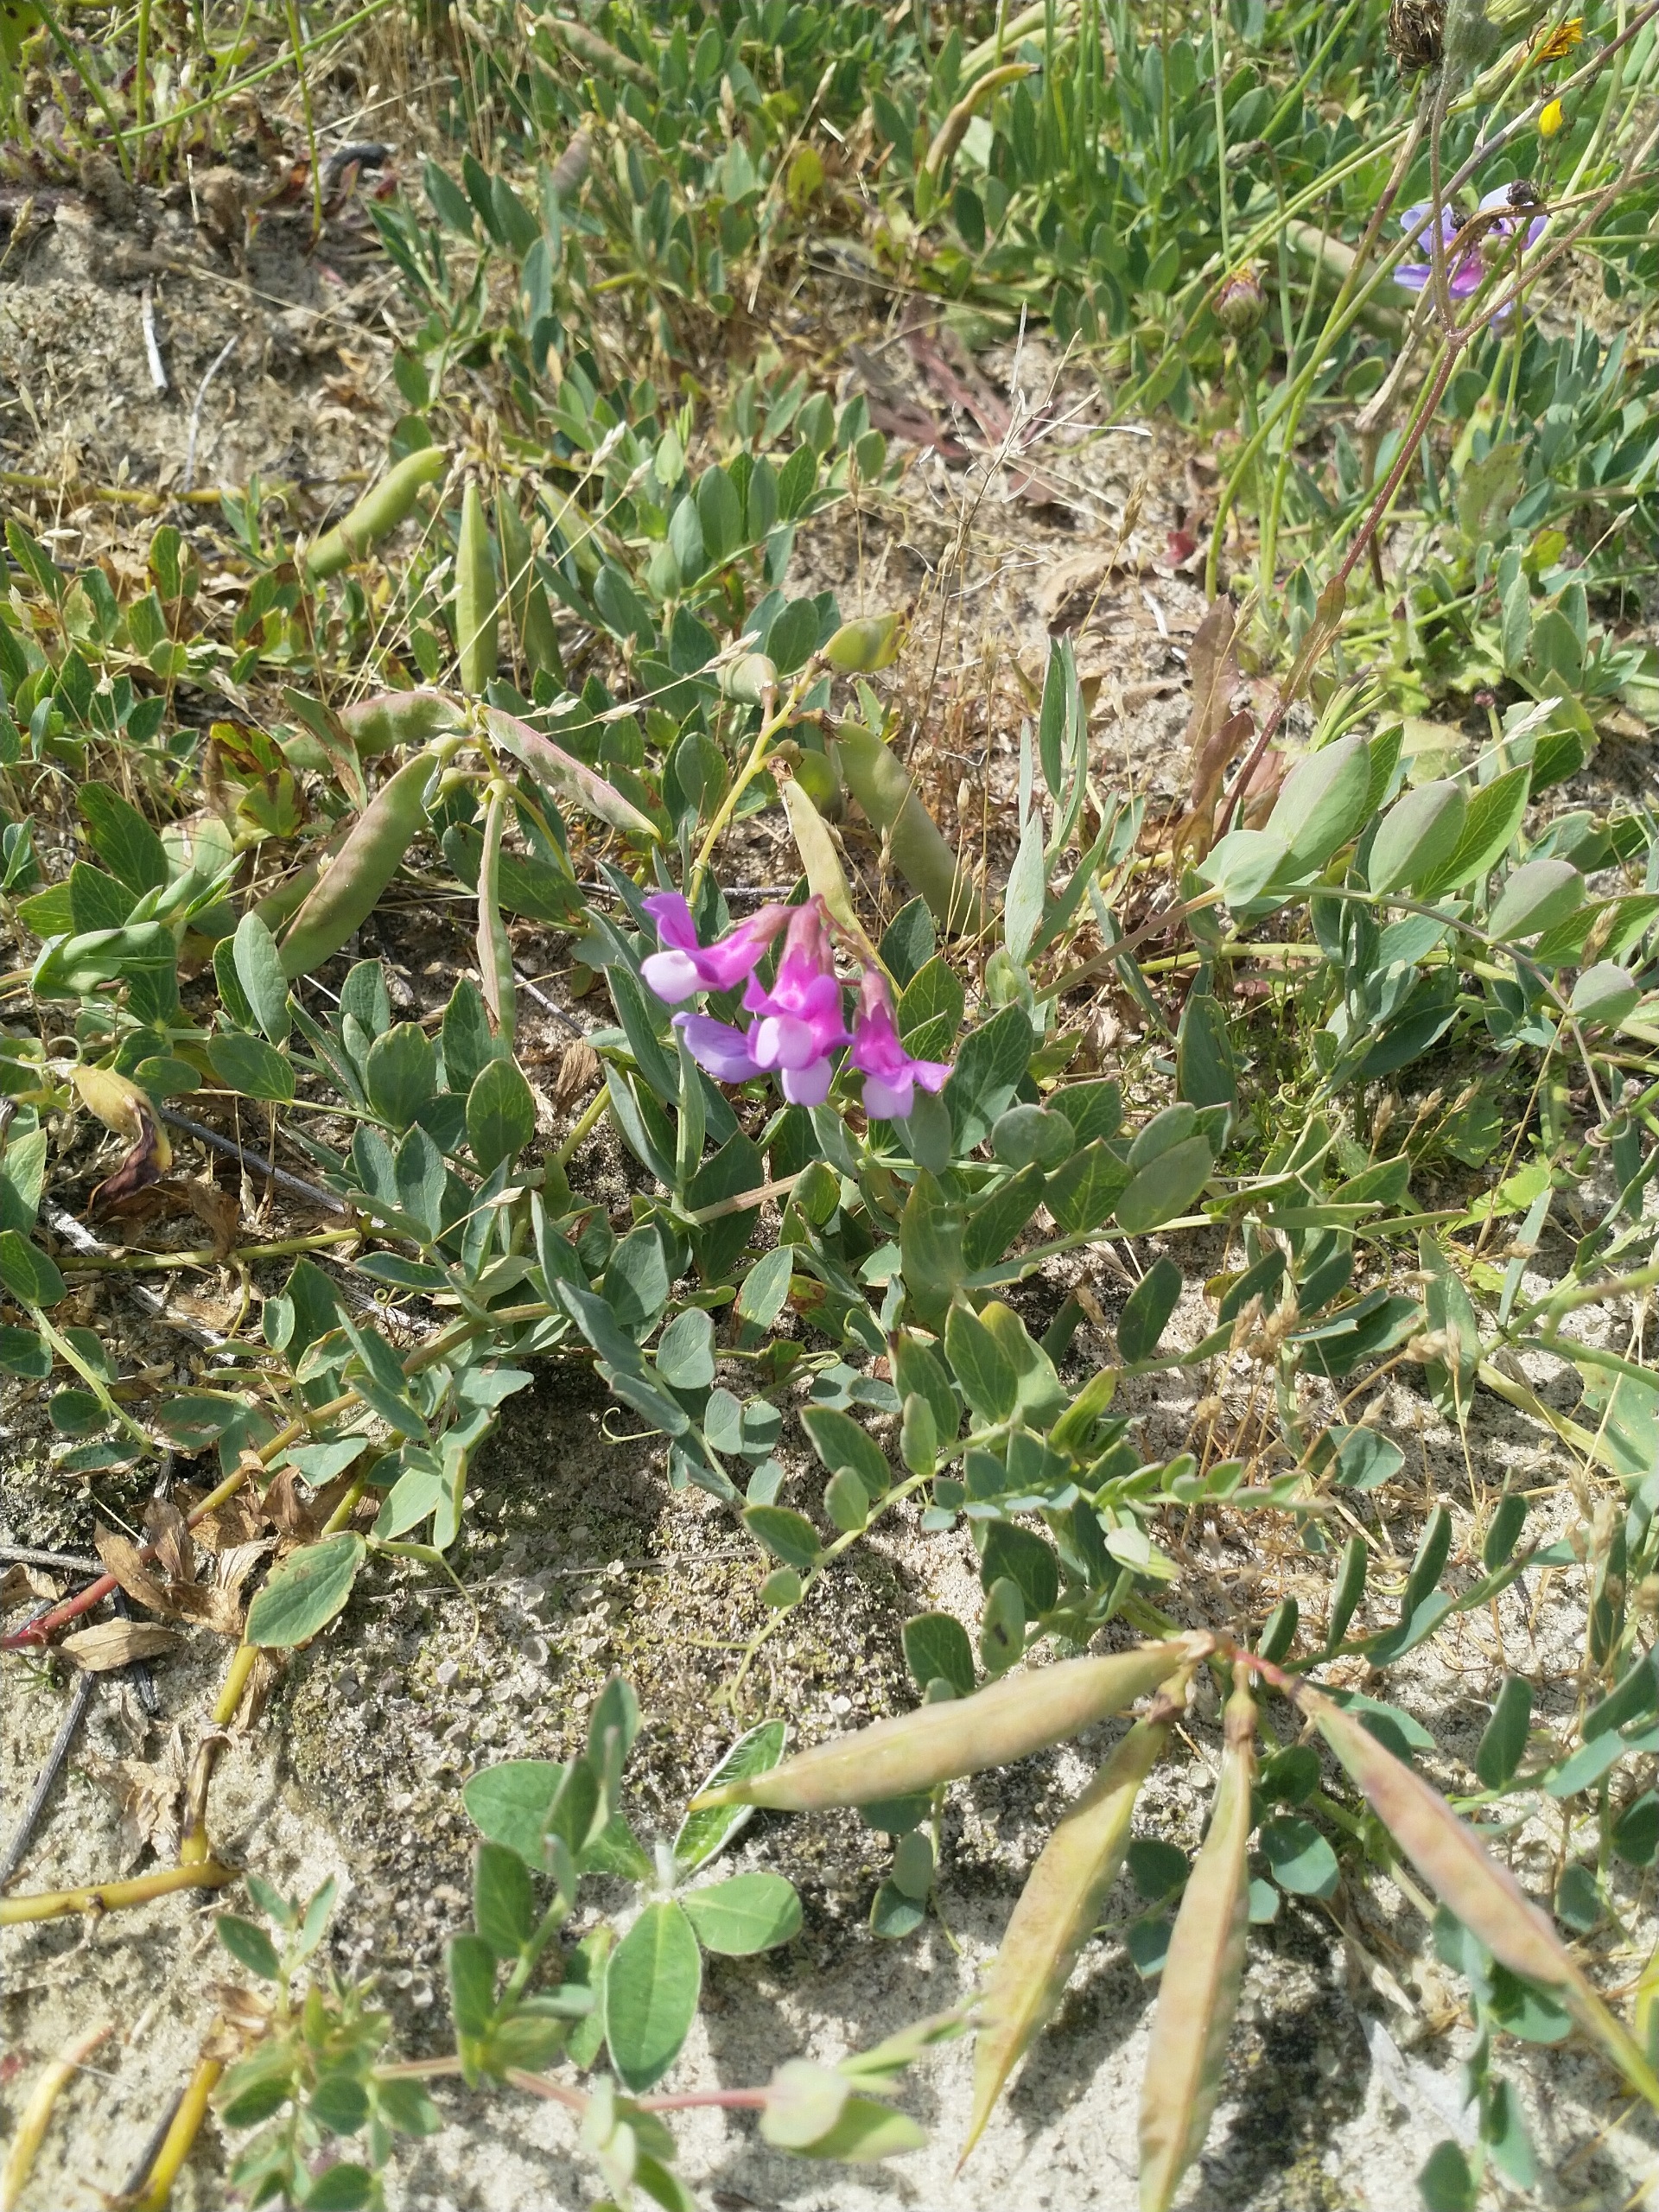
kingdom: Plantae
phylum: Tracheophyta
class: Magnoliopsida
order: Fabales
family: Fabaceae
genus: Lathyrus
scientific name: Lathyrus japonicus
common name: Klit-fladbælg
